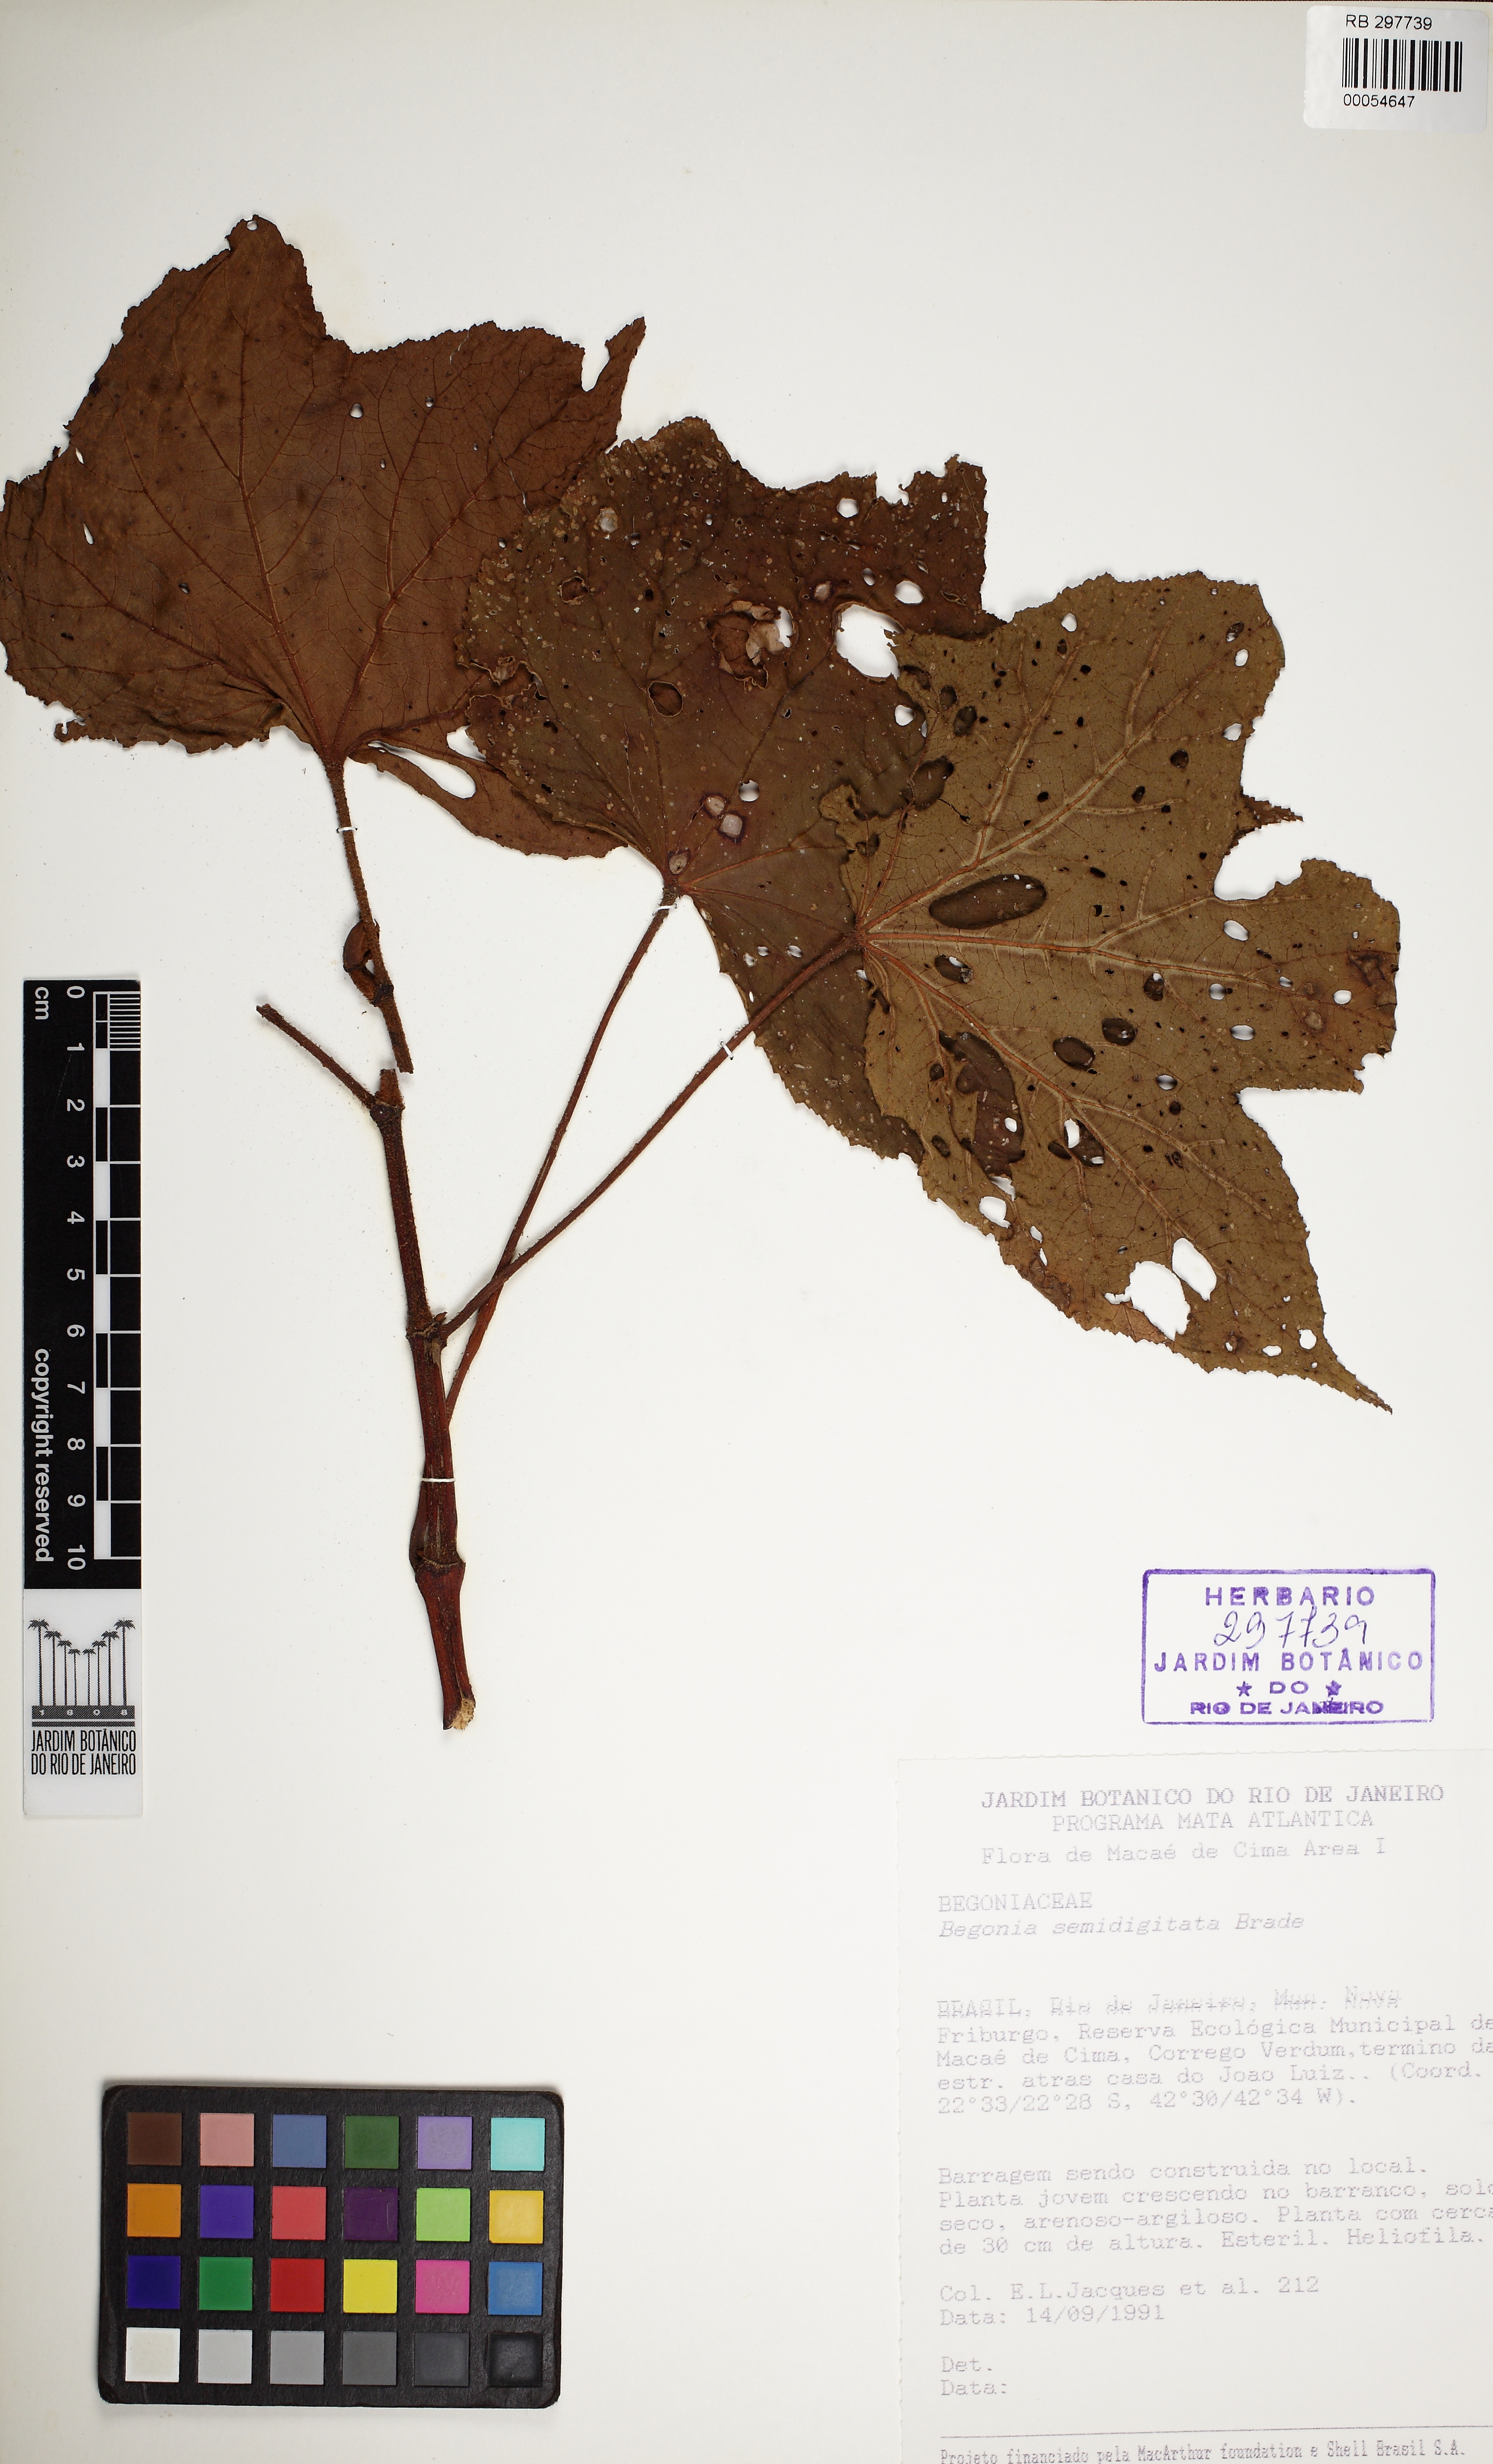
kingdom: Plantae
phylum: Tracheophyta
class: Magnoliopsida
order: Cucurbitales
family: Begoniaceae
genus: Begonia
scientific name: Begonia semidigitata
